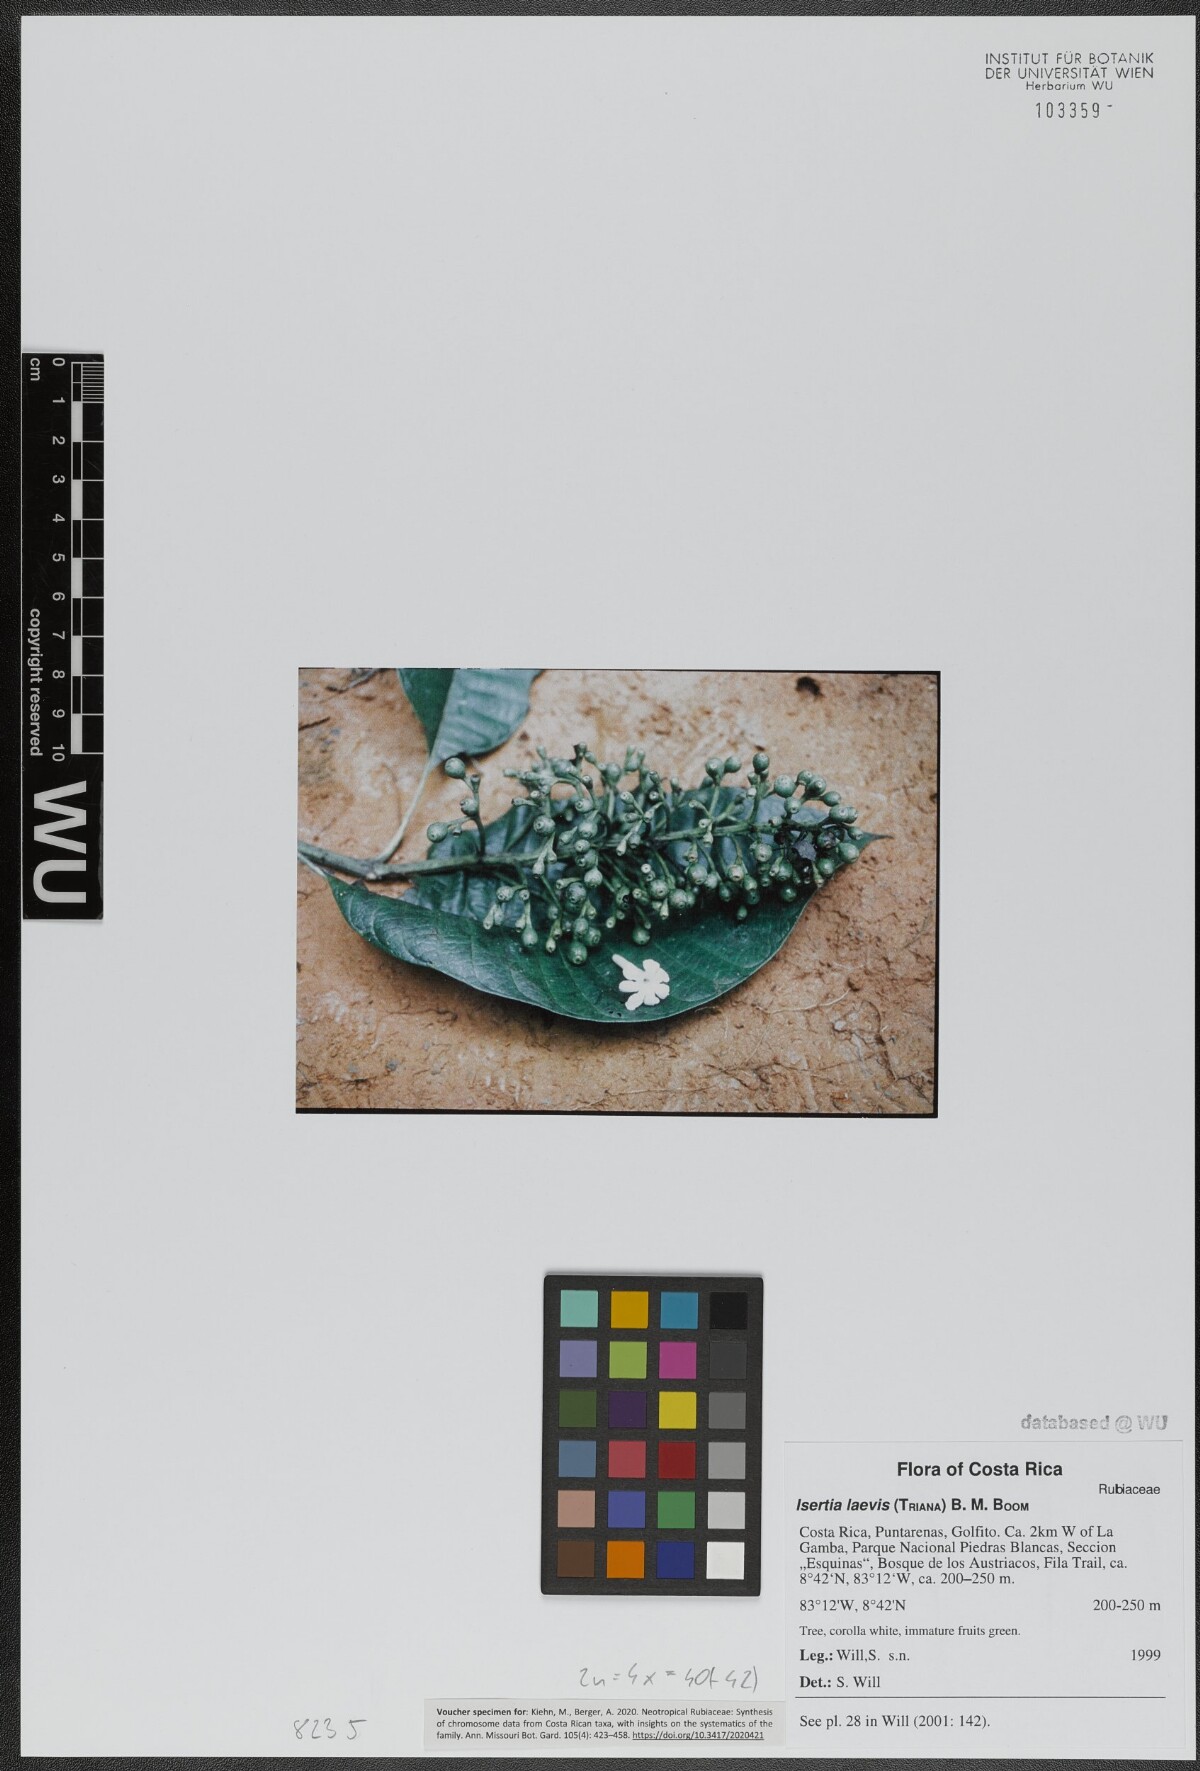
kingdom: Plantae
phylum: Tracheophyta
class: Magnoliopsida
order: Gentianales
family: Rubiaceae
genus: Isertia
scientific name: Isertia laevis
